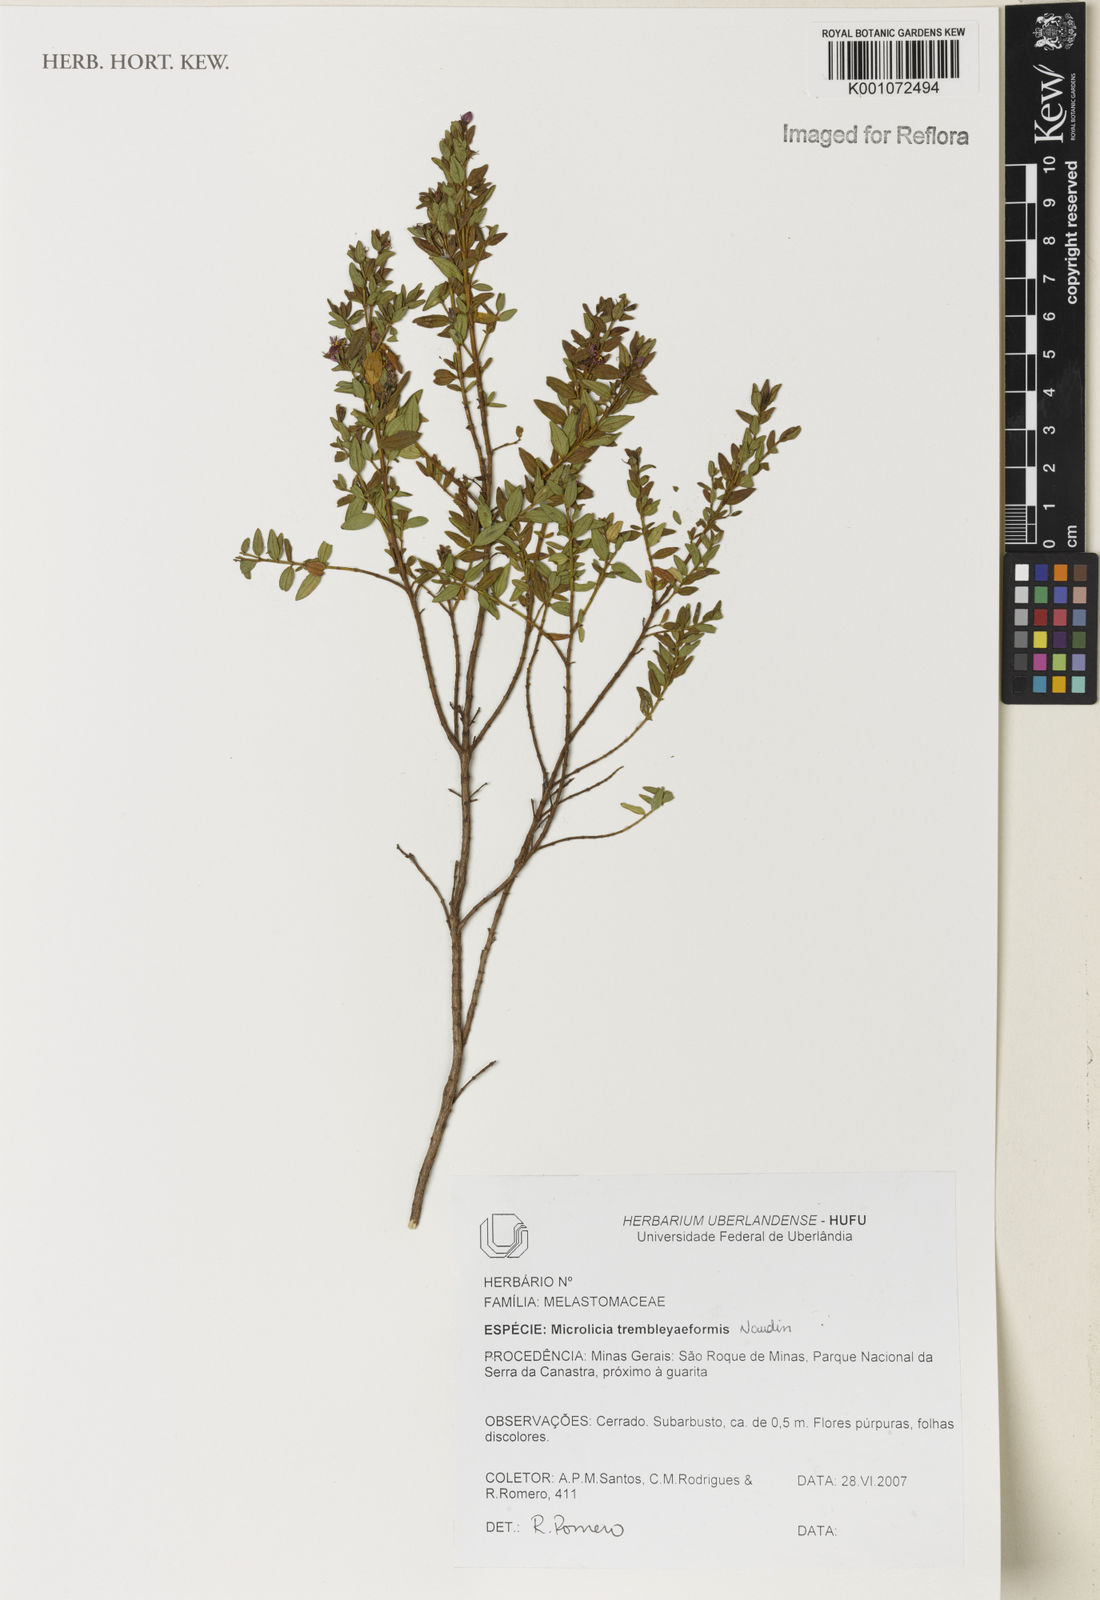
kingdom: Plantae
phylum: Tracheophyta
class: Magnoliopsida
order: Myrtales
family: Melastomataceae
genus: Microlicia
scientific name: Microlicia trembleyaeformis
